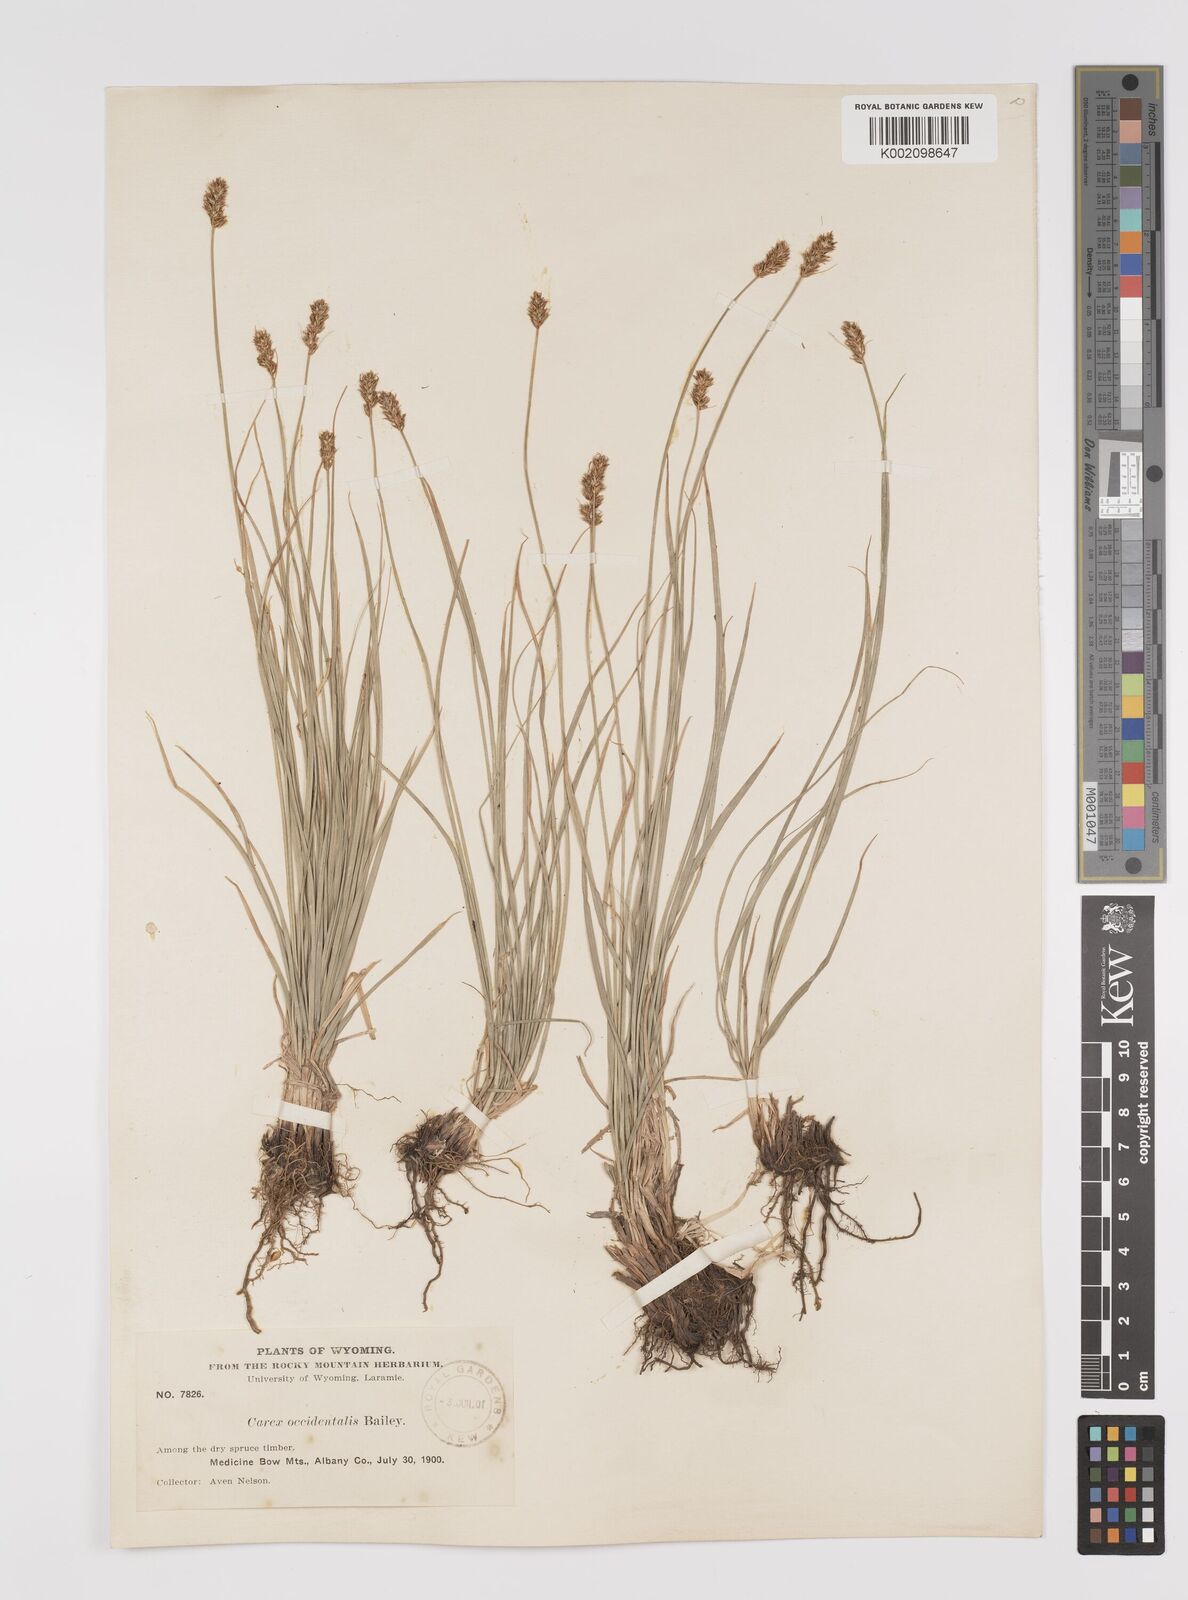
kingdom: Plantae
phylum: Tracheophyta
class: Liliopsida
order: Poales
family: Cyperaceae
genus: Carex
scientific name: Carex occidentalis
